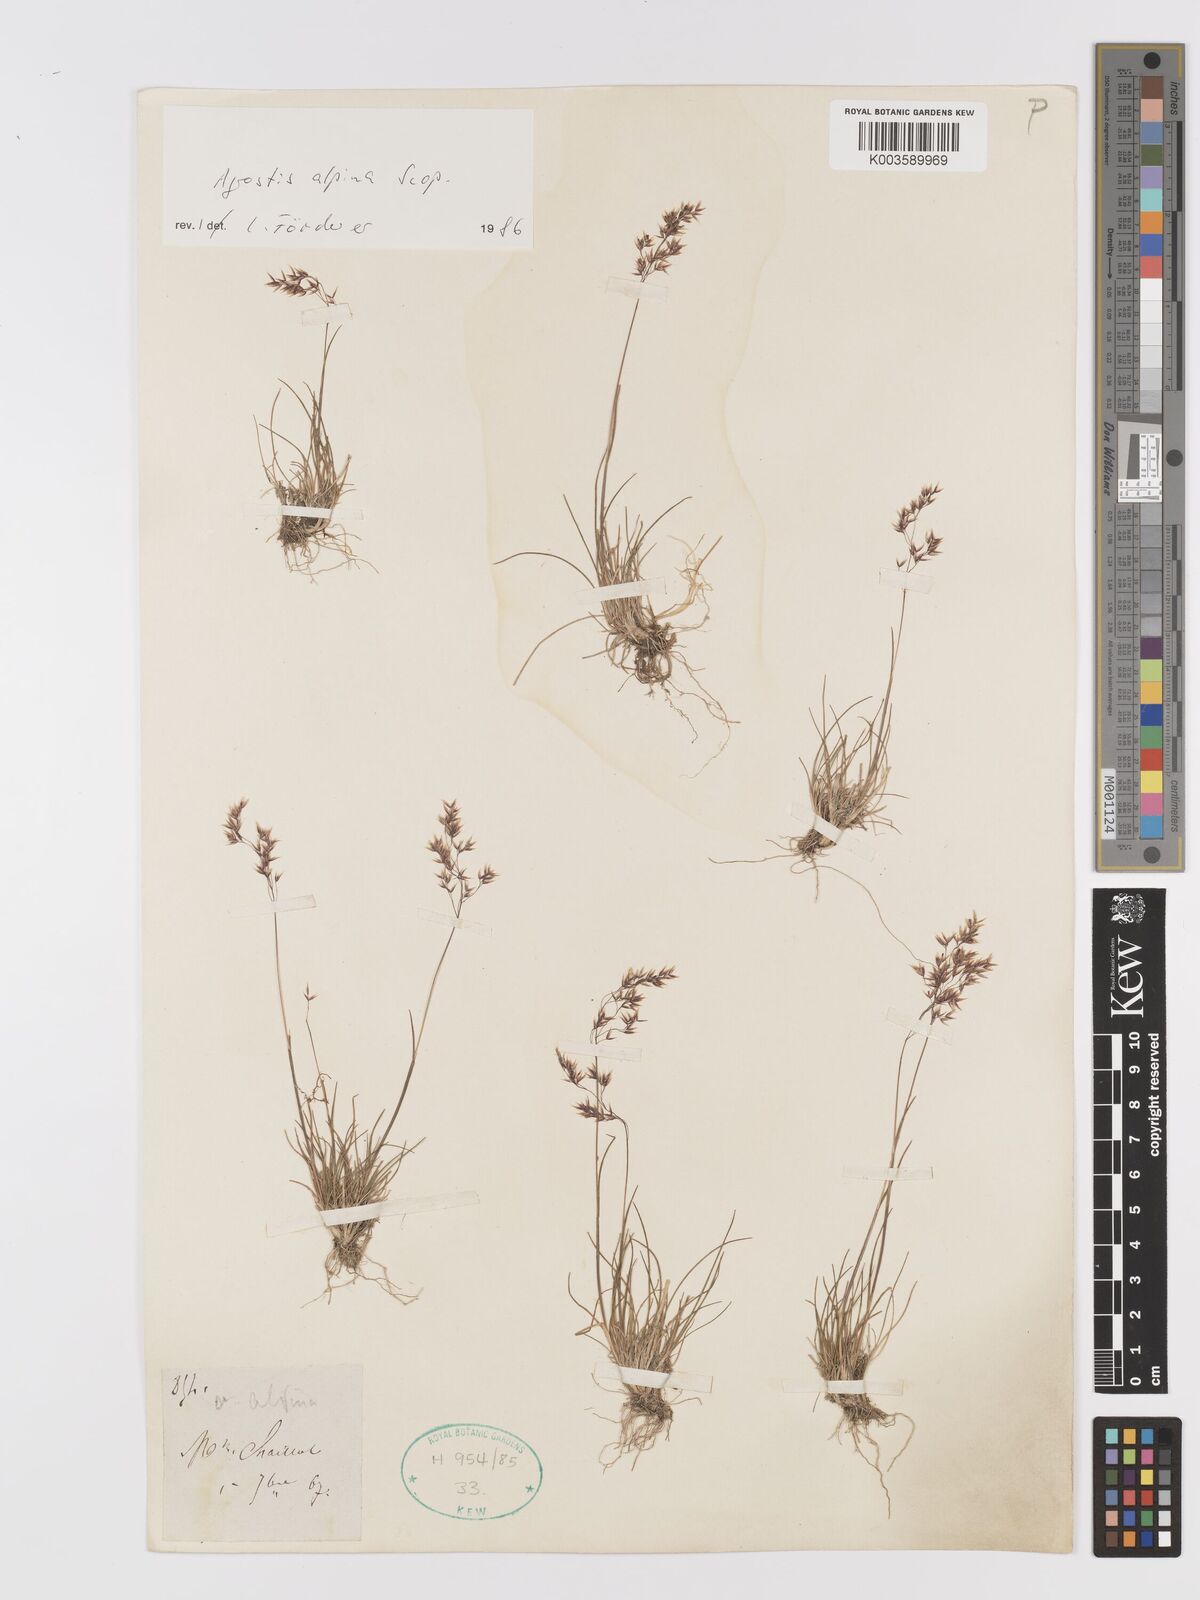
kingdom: Plantae
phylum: Tracheophyta
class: Liliopsida
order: Poales
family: Poaceae
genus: Alpagrostis
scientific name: Alpagrostis alpina
